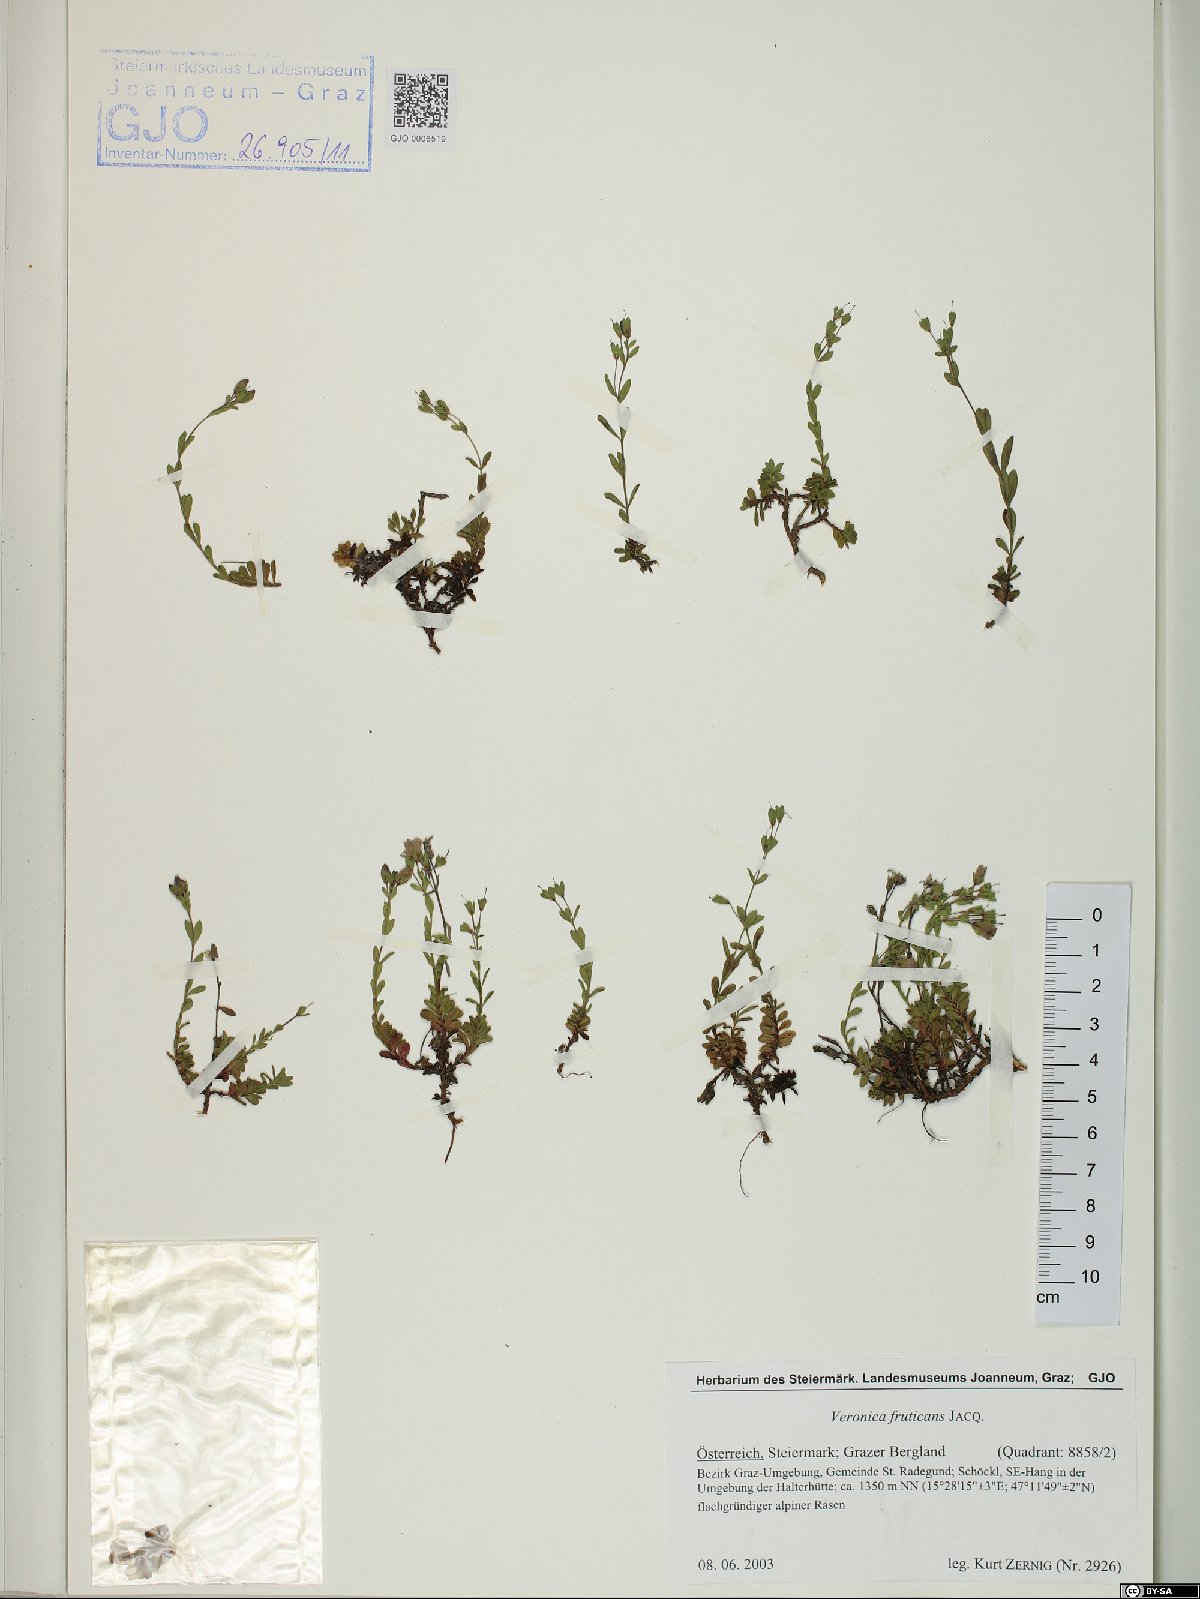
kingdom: Plantae
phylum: Tracheophyta
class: Magnoliopsida
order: Lamiales
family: Plantaginaceae
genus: Veronica
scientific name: Veronica fruticans
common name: Rock speedwell
